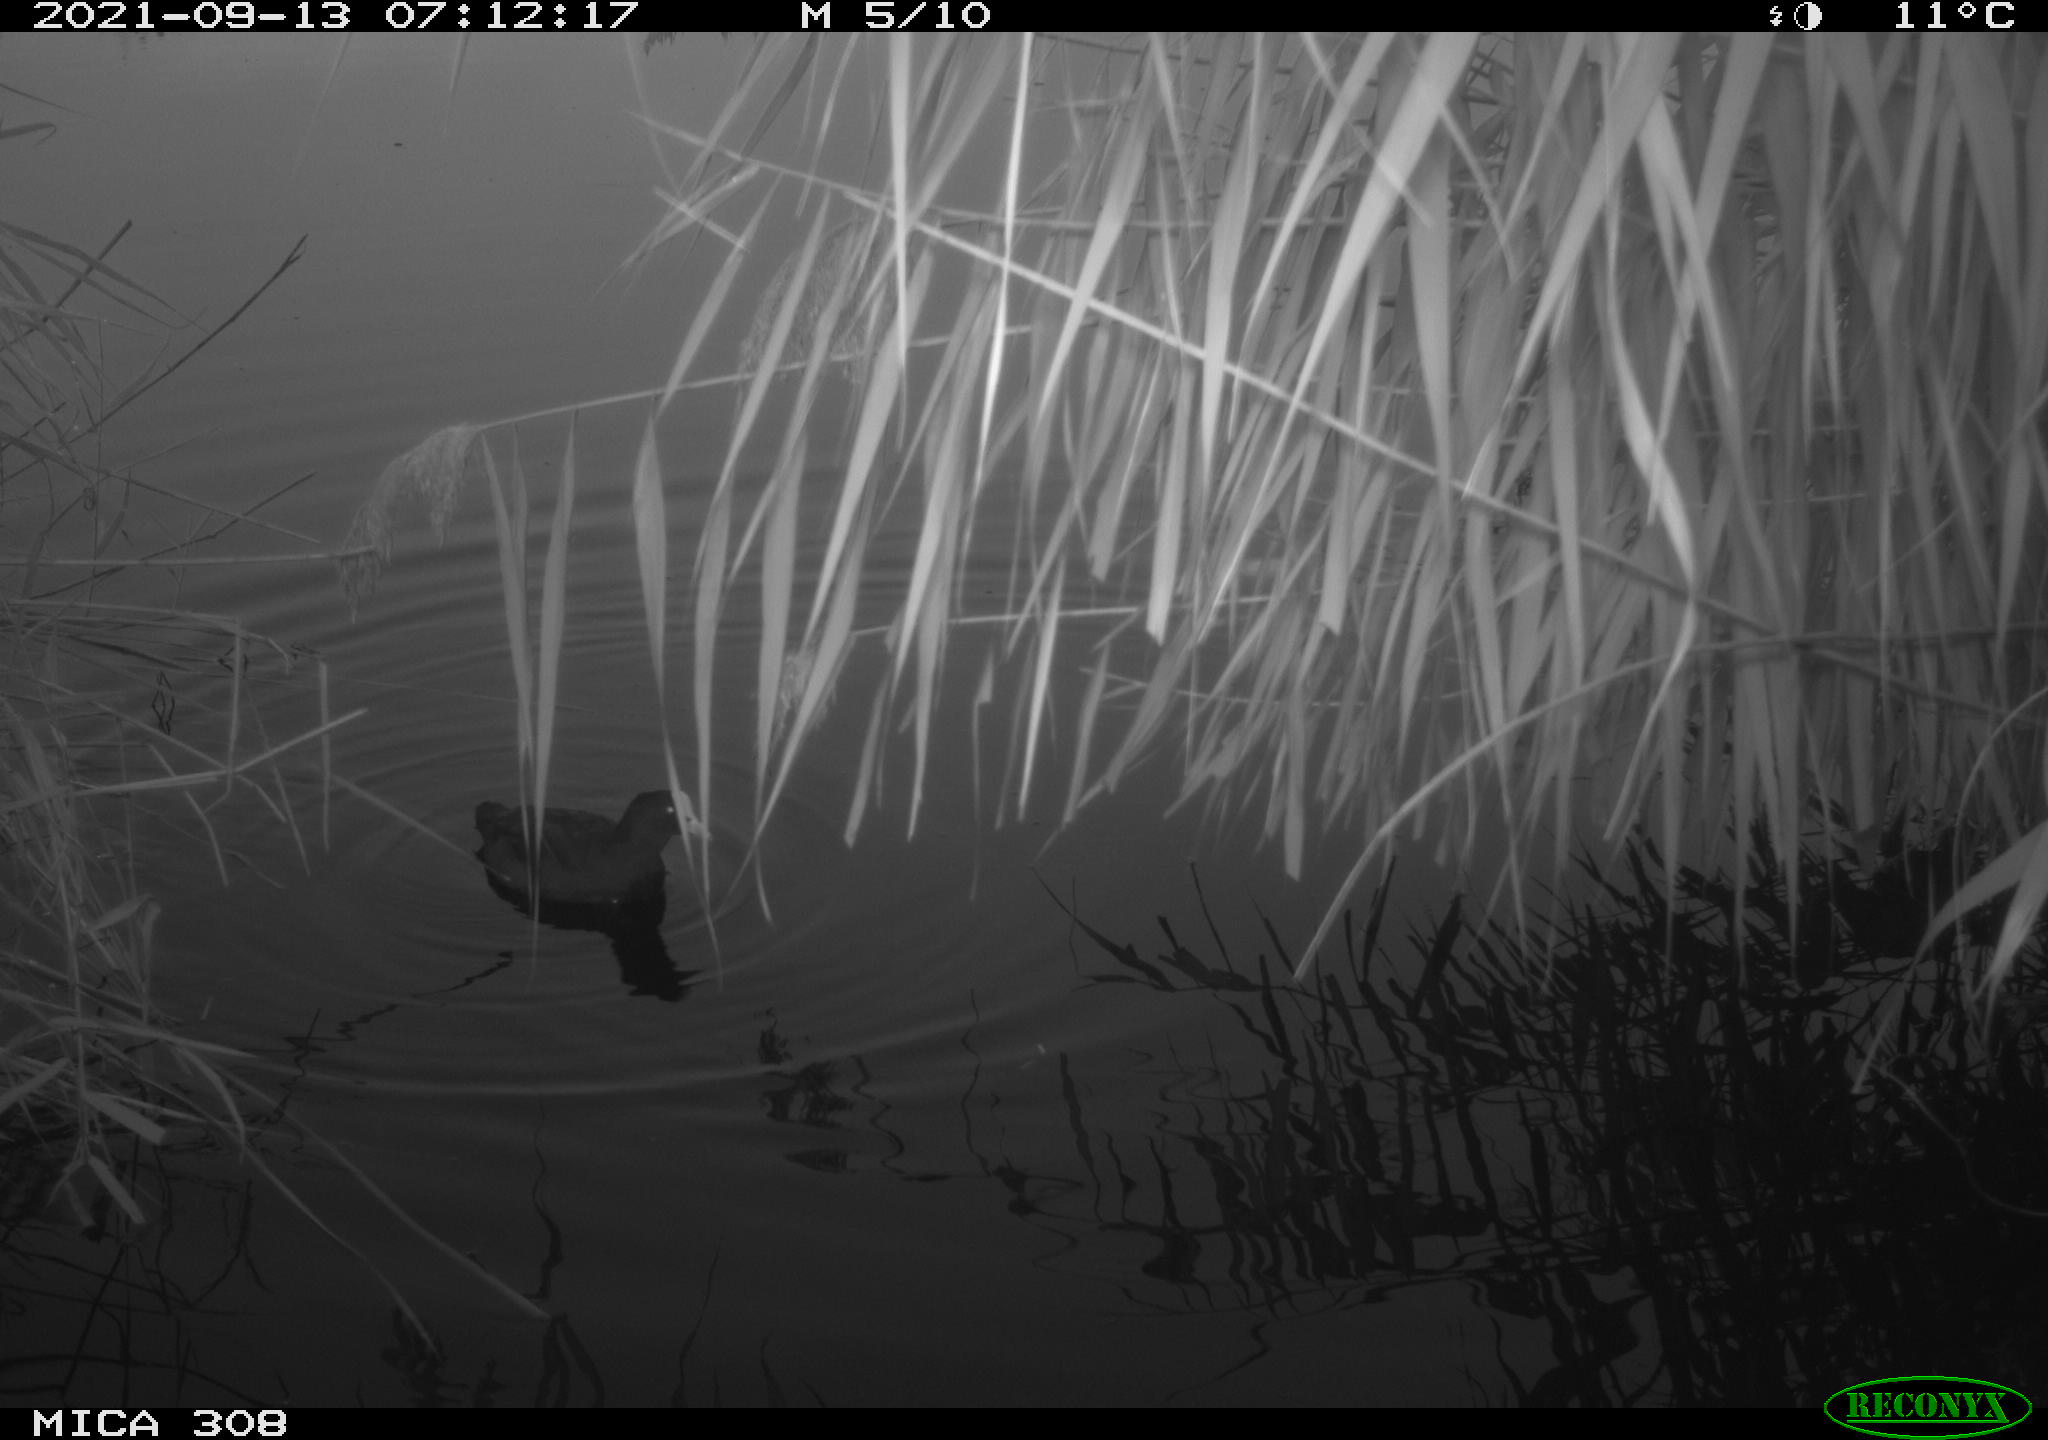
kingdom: Animalia
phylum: Chordata
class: Aves
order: Gruiformes
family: Rallidae
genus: Fulica
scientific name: Fulica atra
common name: Eurasian coot
